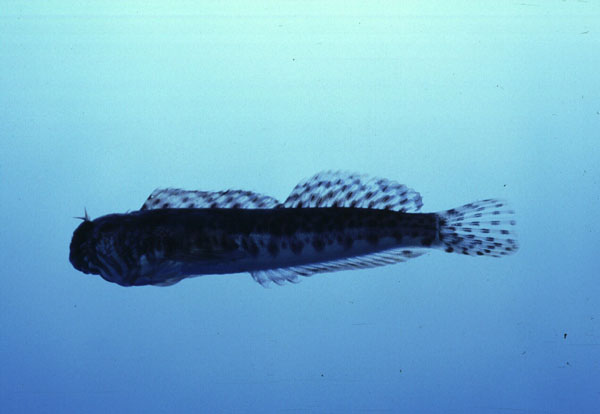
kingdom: Animalia
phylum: Chordata
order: Perciformes
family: Blenniidae
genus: Entomacrodus
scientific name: Entomacrodus striatus
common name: Pearly rockskipper
